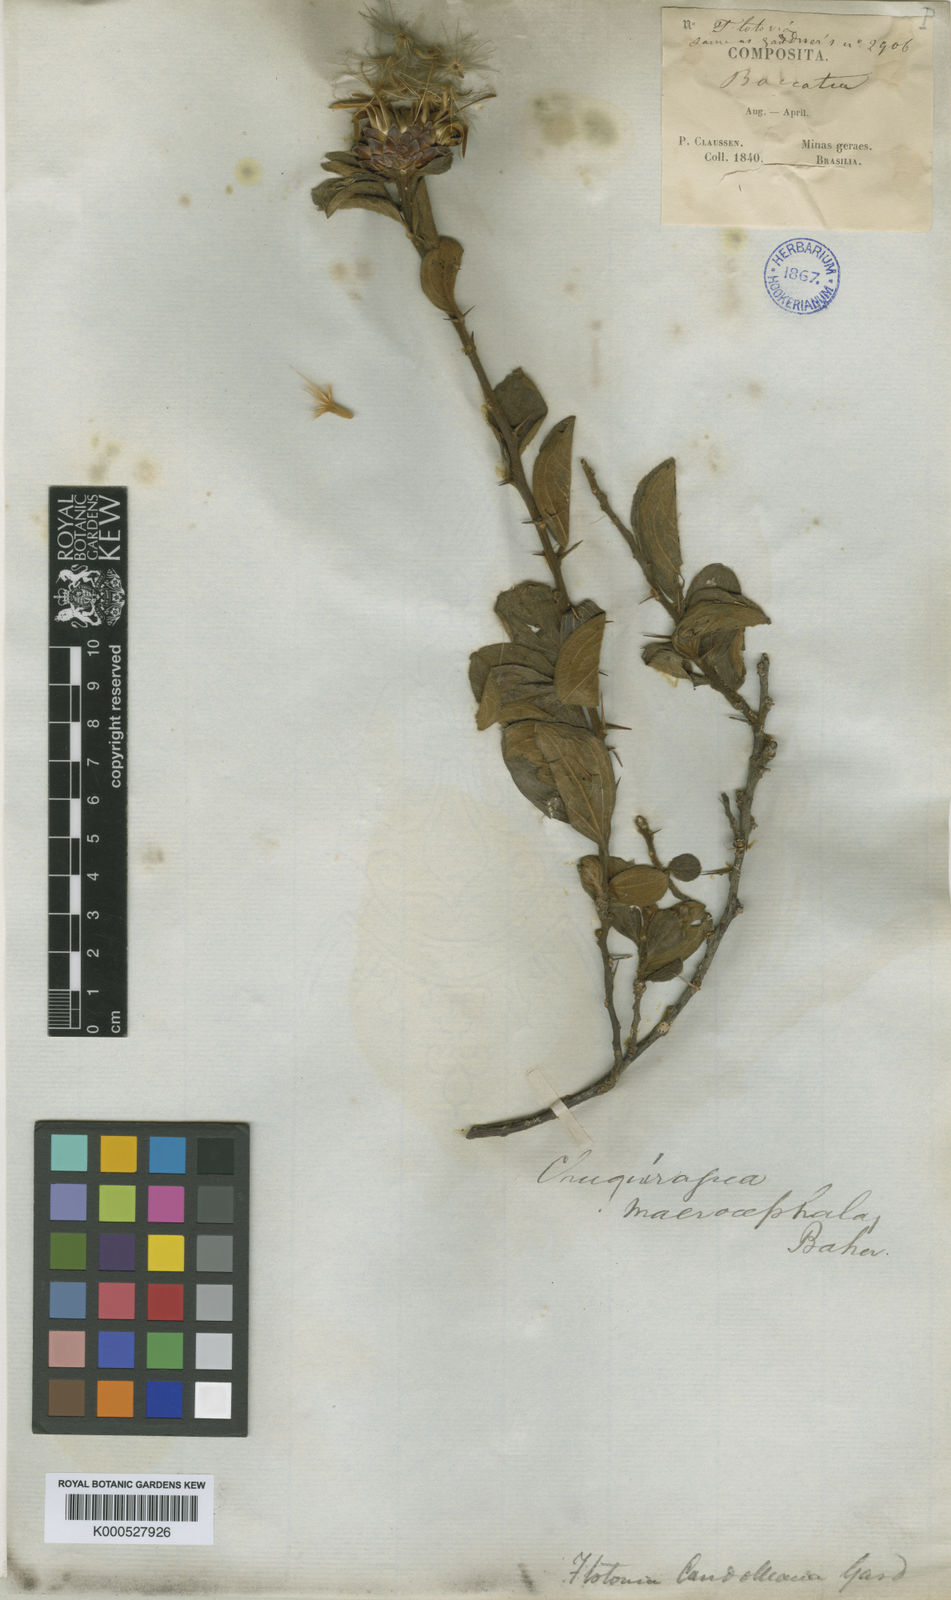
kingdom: Plantae
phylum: Tracheophyta
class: Magnoliopsida
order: Asterales
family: Asteraceae
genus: Dasyphyllum
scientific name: Dasyphyllum velutinum
